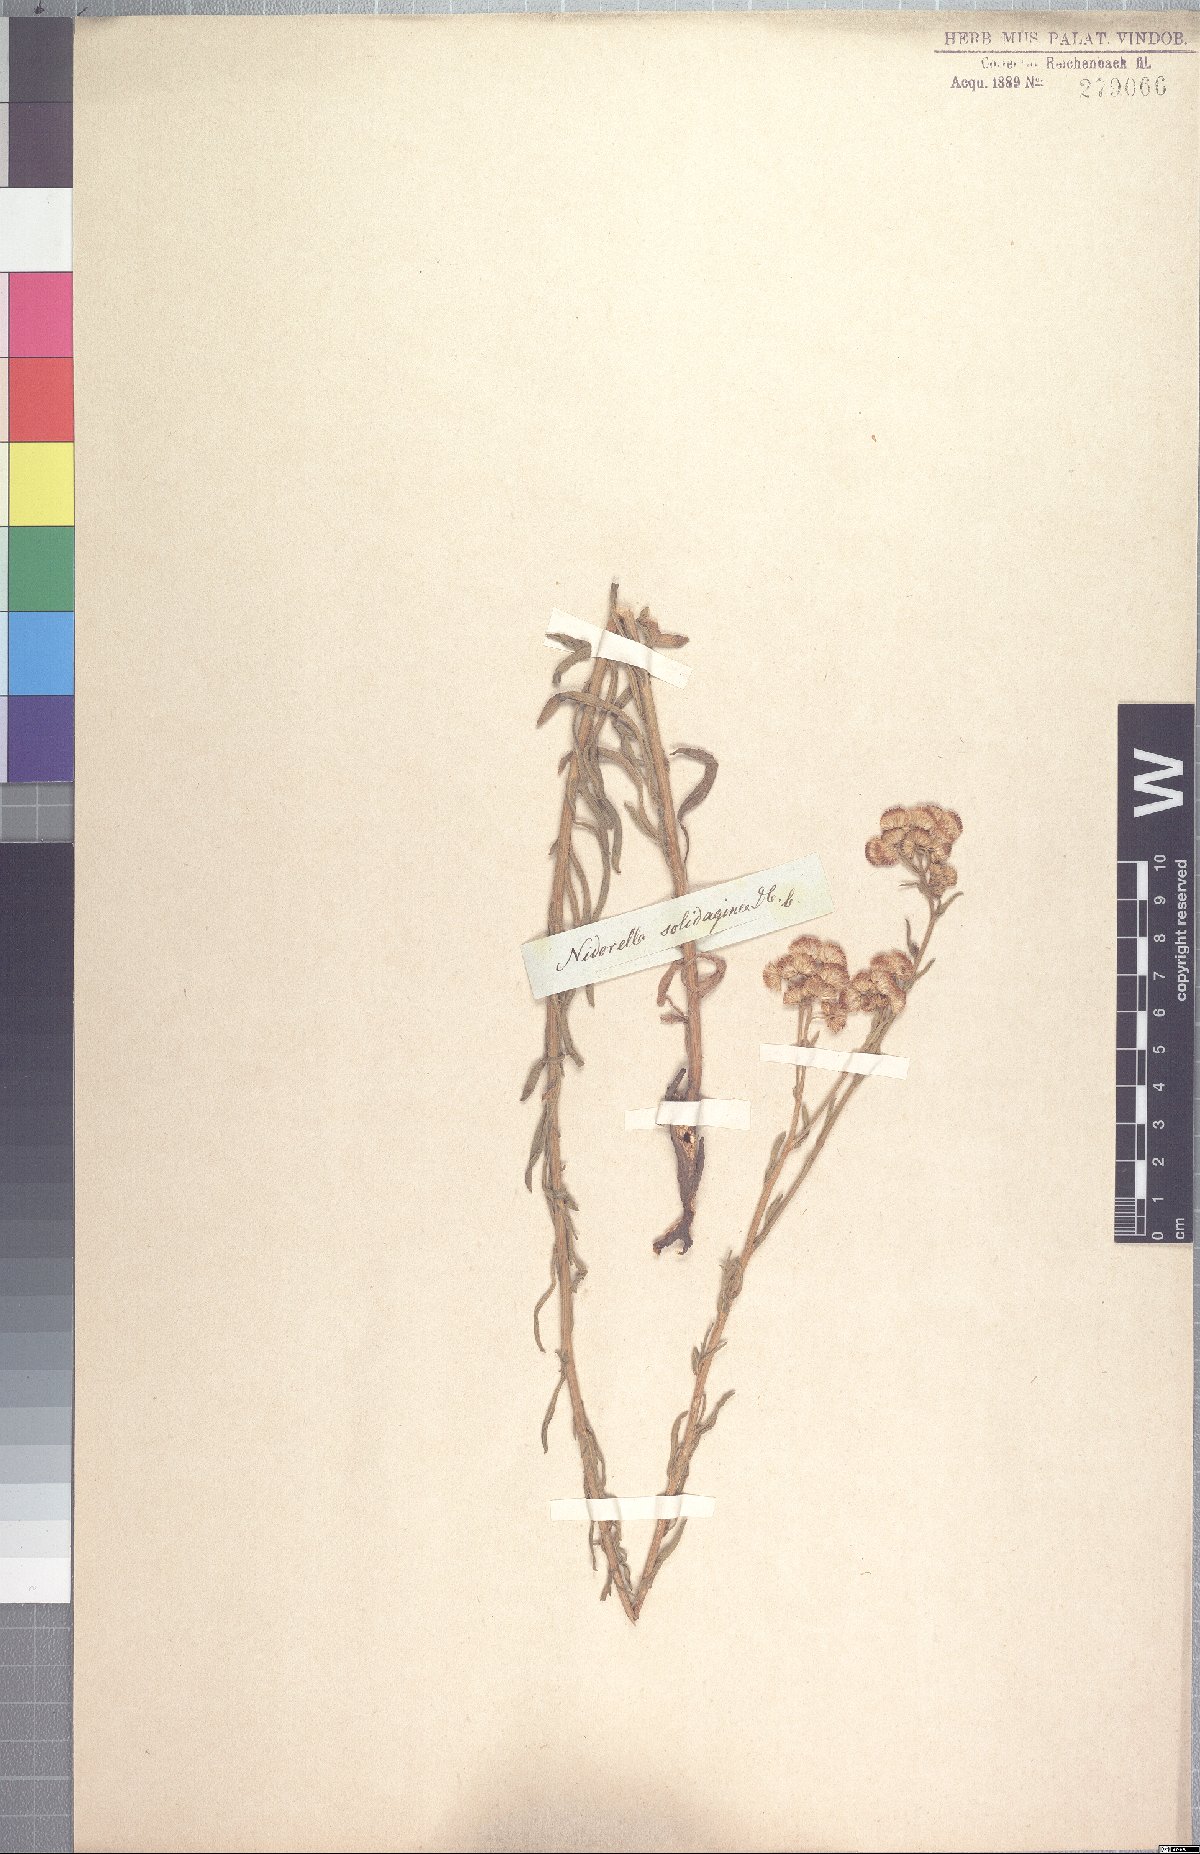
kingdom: Plantae
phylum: Tracheophyta
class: Magnoliopsida
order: Asterales
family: Asteraceae
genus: Nidorella
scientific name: Nidorella resedifolia
